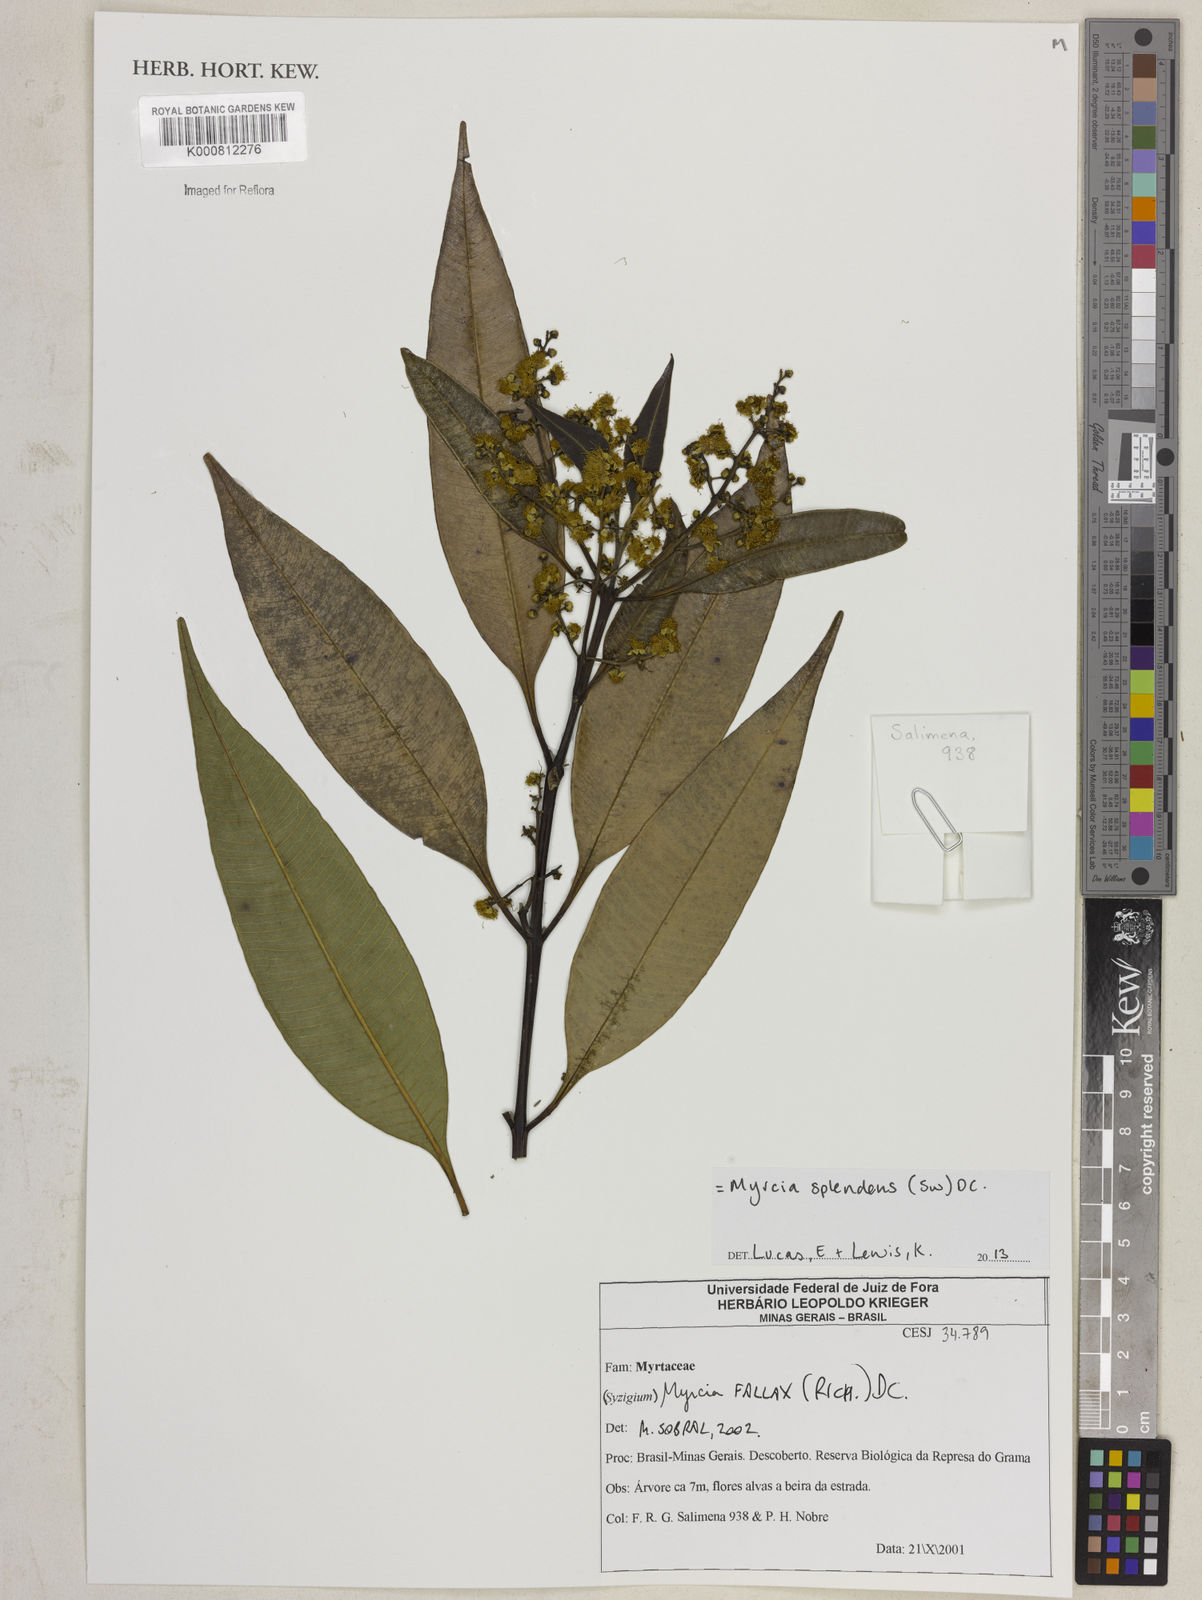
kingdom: Plantae
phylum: Tracheophyta
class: Magnoliopsida
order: Myrtales
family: Myrtaceae
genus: Myrcia
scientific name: Myrcia splendens
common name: Surinam cherry
